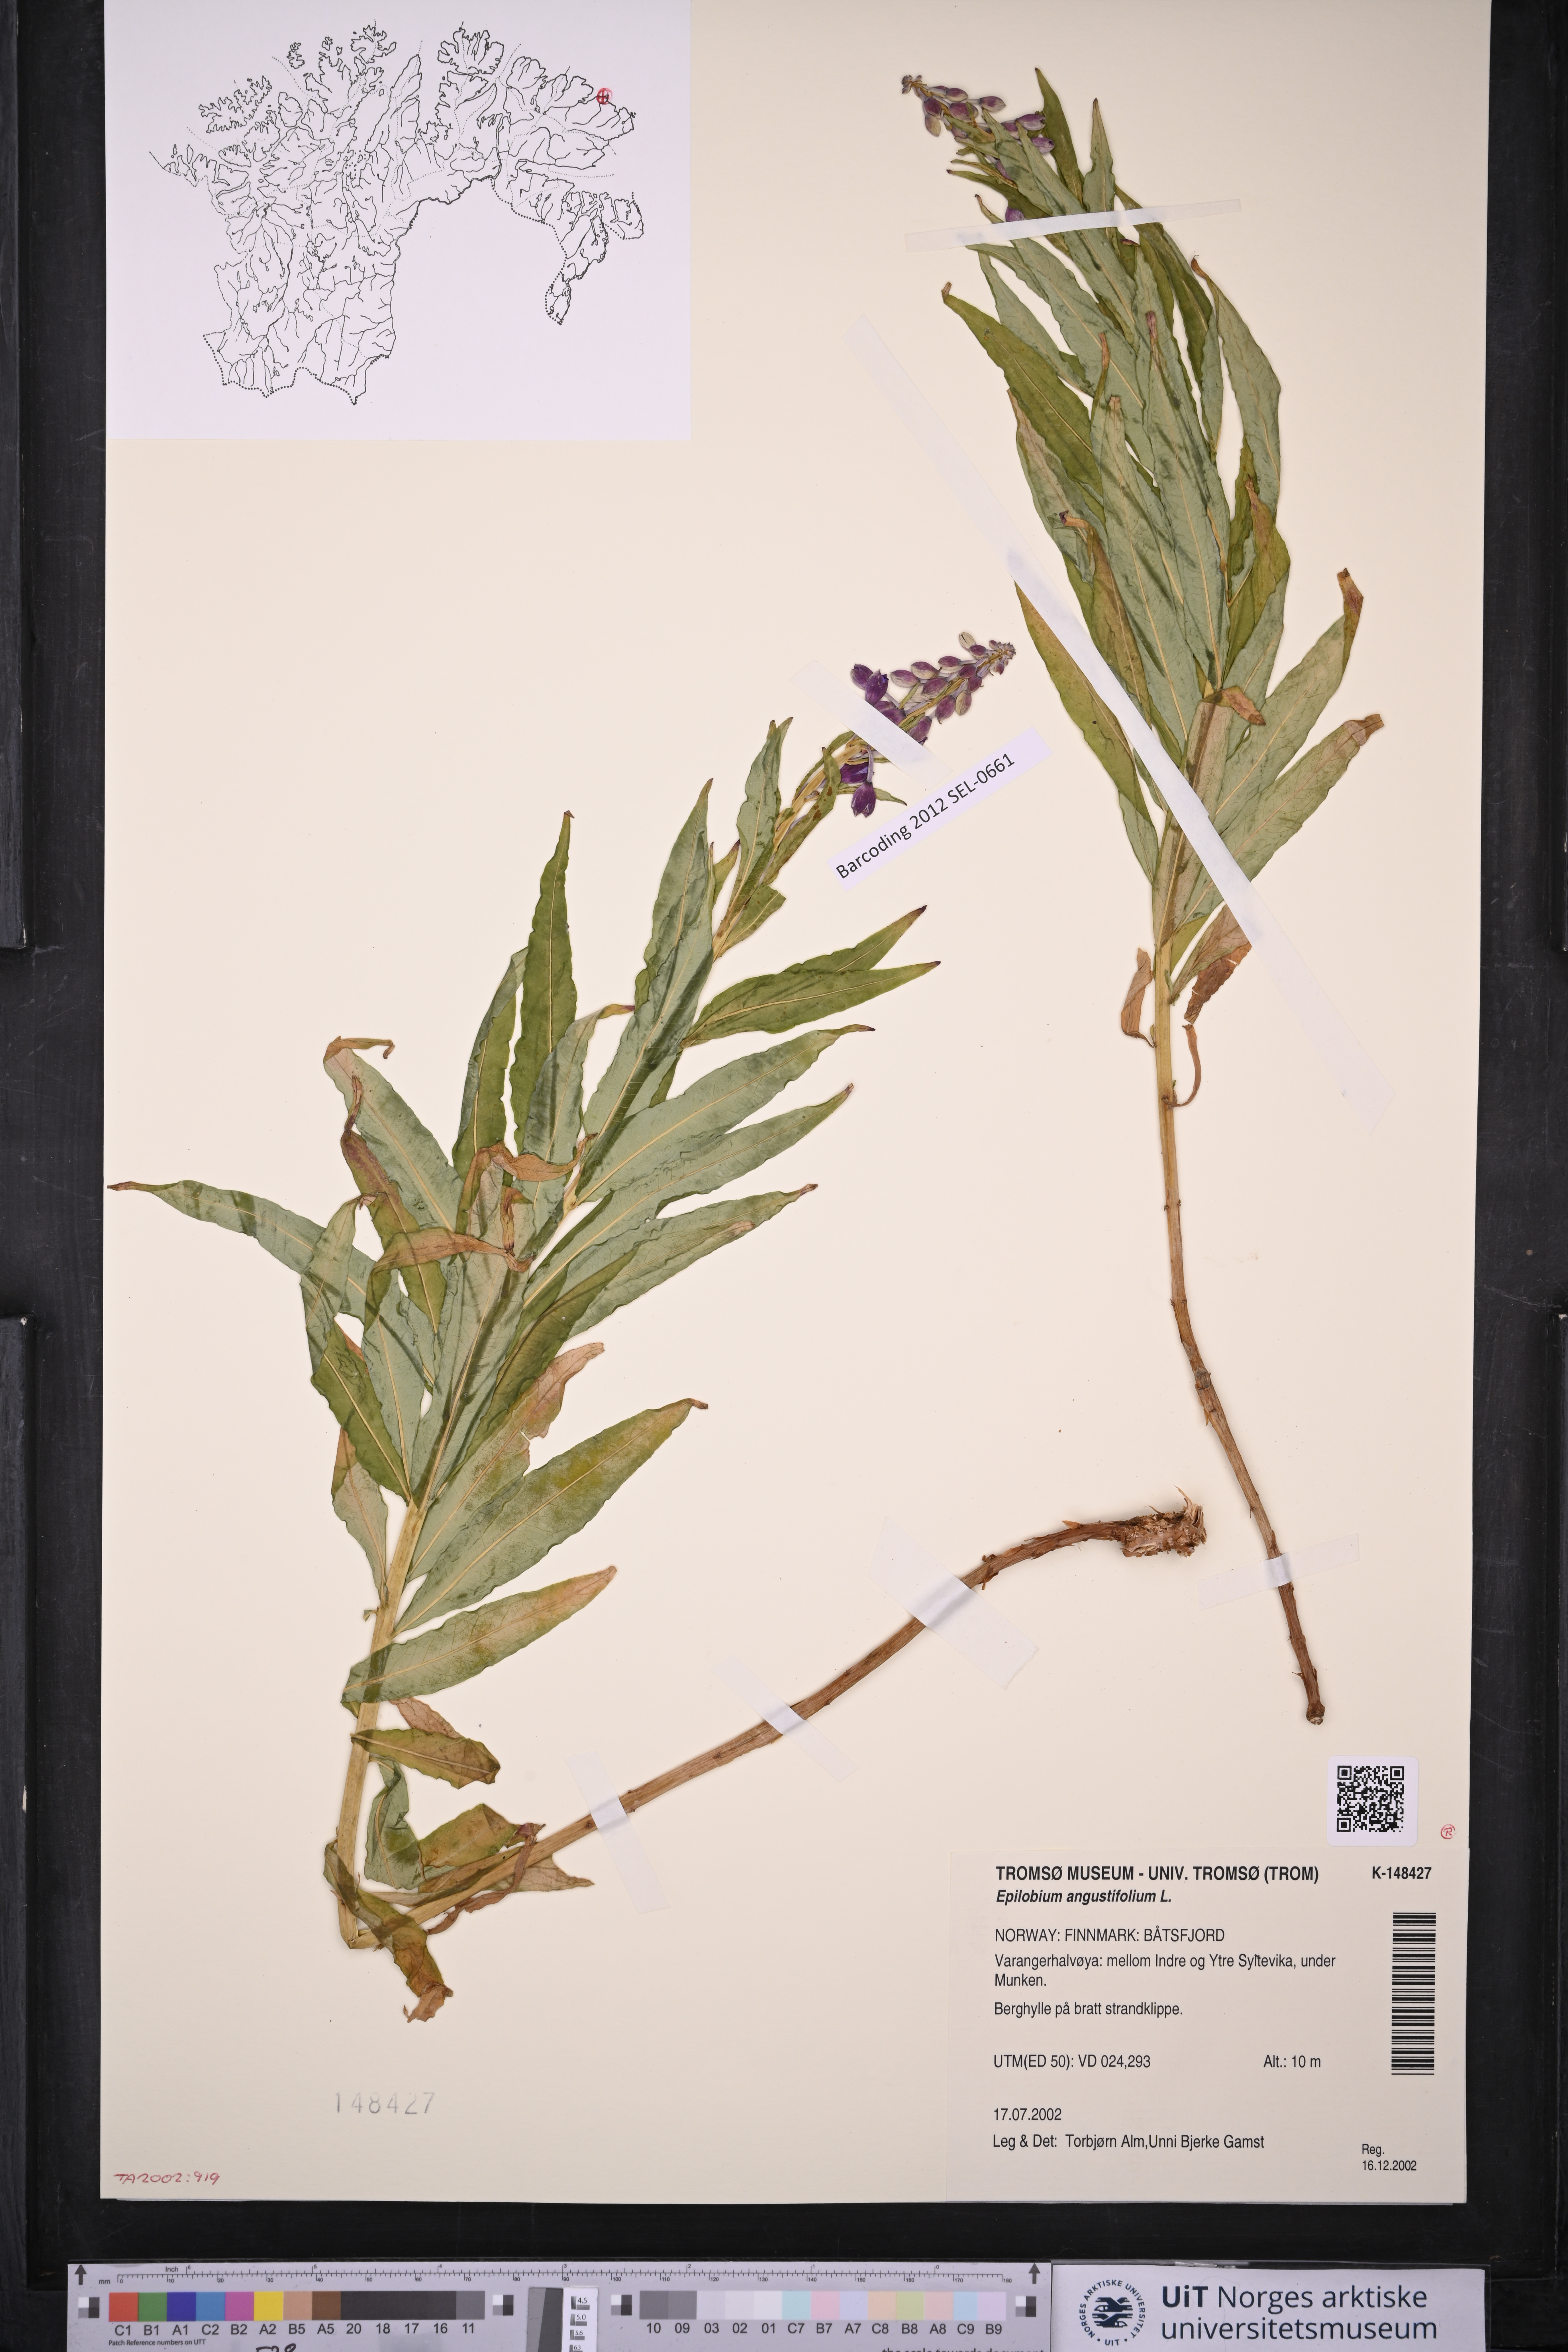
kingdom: Plantae
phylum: Tracheophyta
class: Magnoliopsida
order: Myrtales
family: Onagraceae
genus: Chamaenerion
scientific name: Chamaenerion angustifolium
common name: Fireweed
